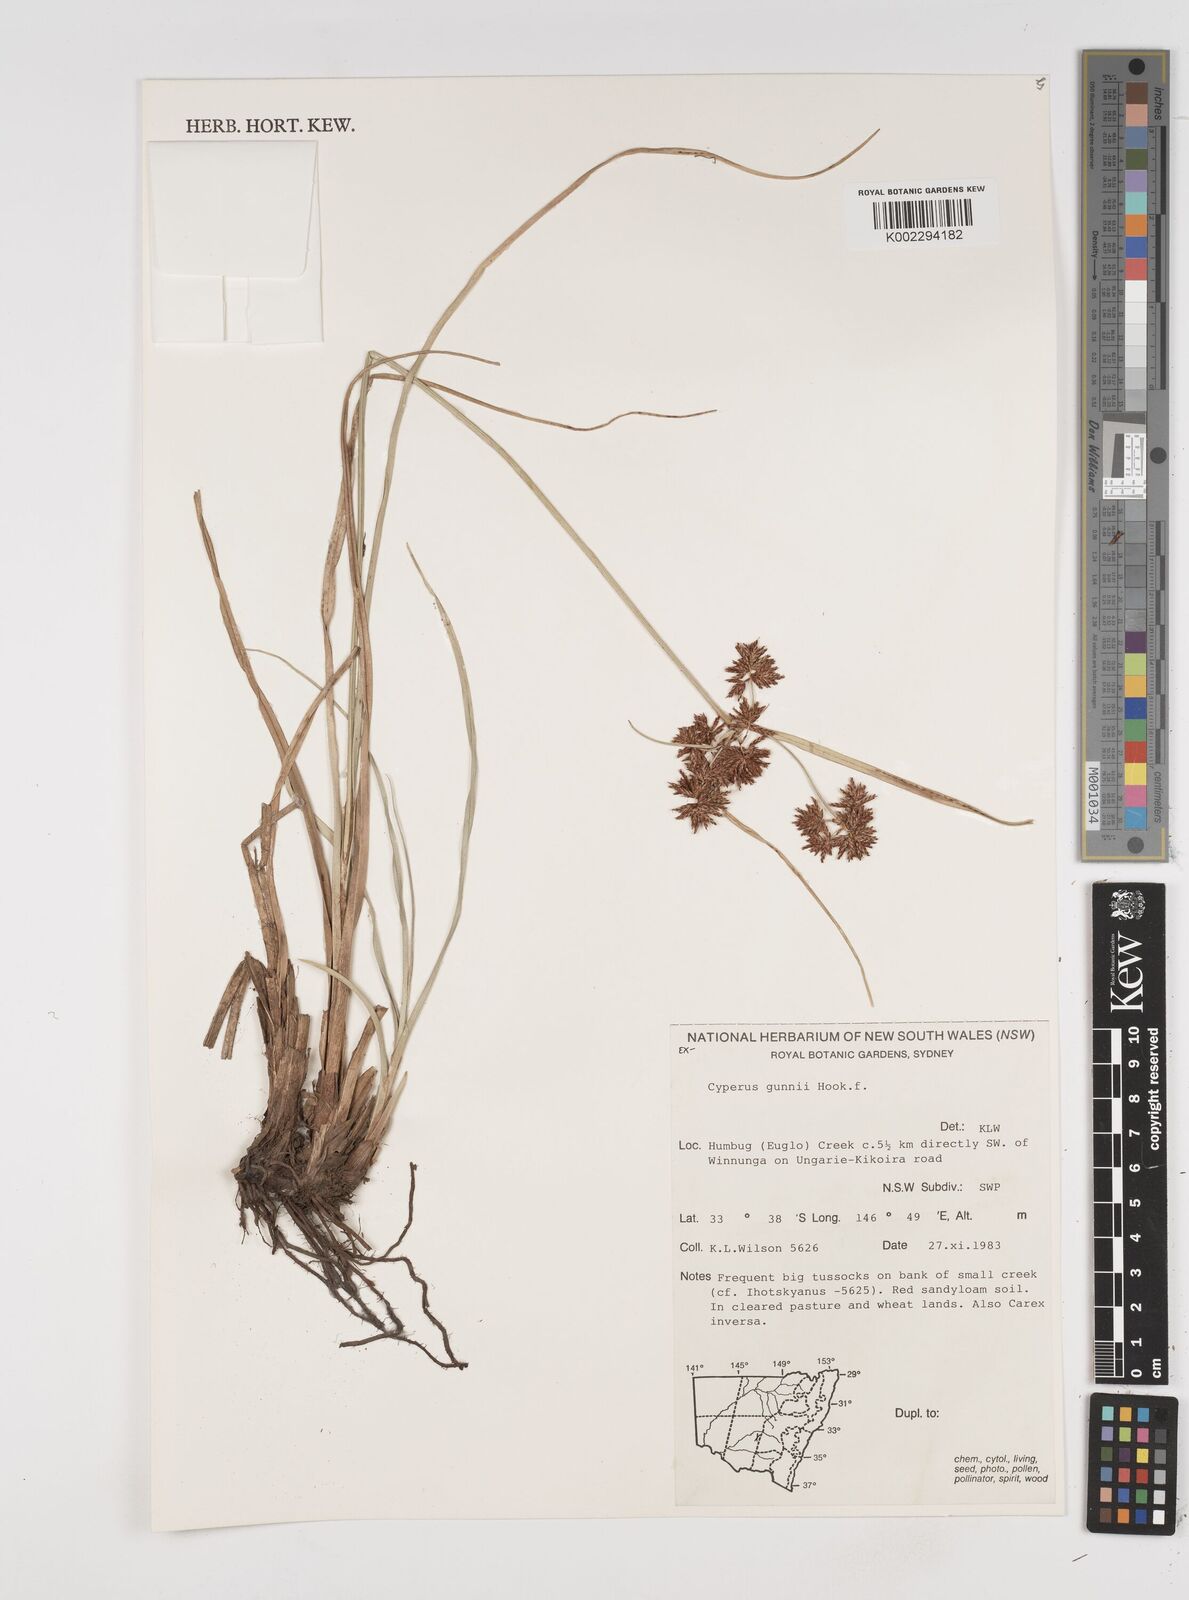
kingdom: Plantae
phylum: Tracheophyta
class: Liliopsida
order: Poales
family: Cyperaceae
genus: Cyperus
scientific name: Cyperus gunnii
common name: Flecked flat-sedge
